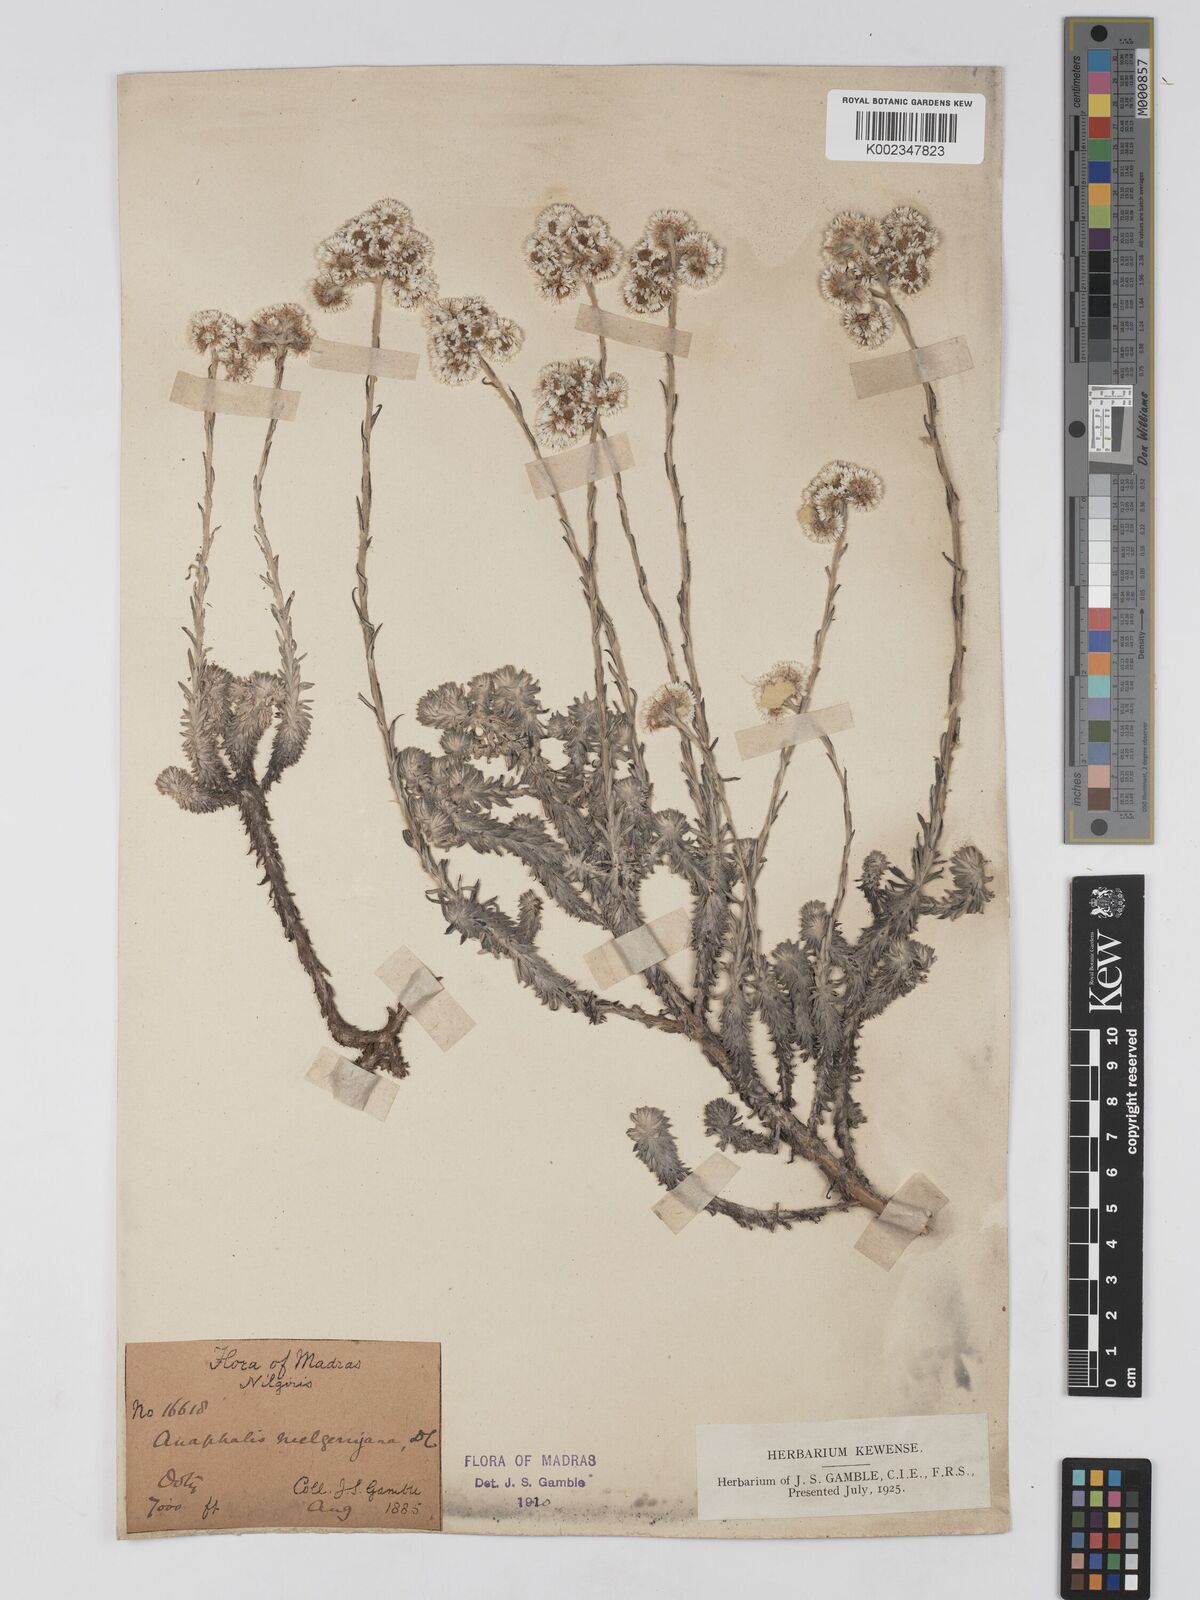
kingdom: Plantae
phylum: Tracheophyta
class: Magnoliopsida
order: Asterales
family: Asteraceae
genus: Anaphalis
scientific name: Anaphalis neelgerryana
